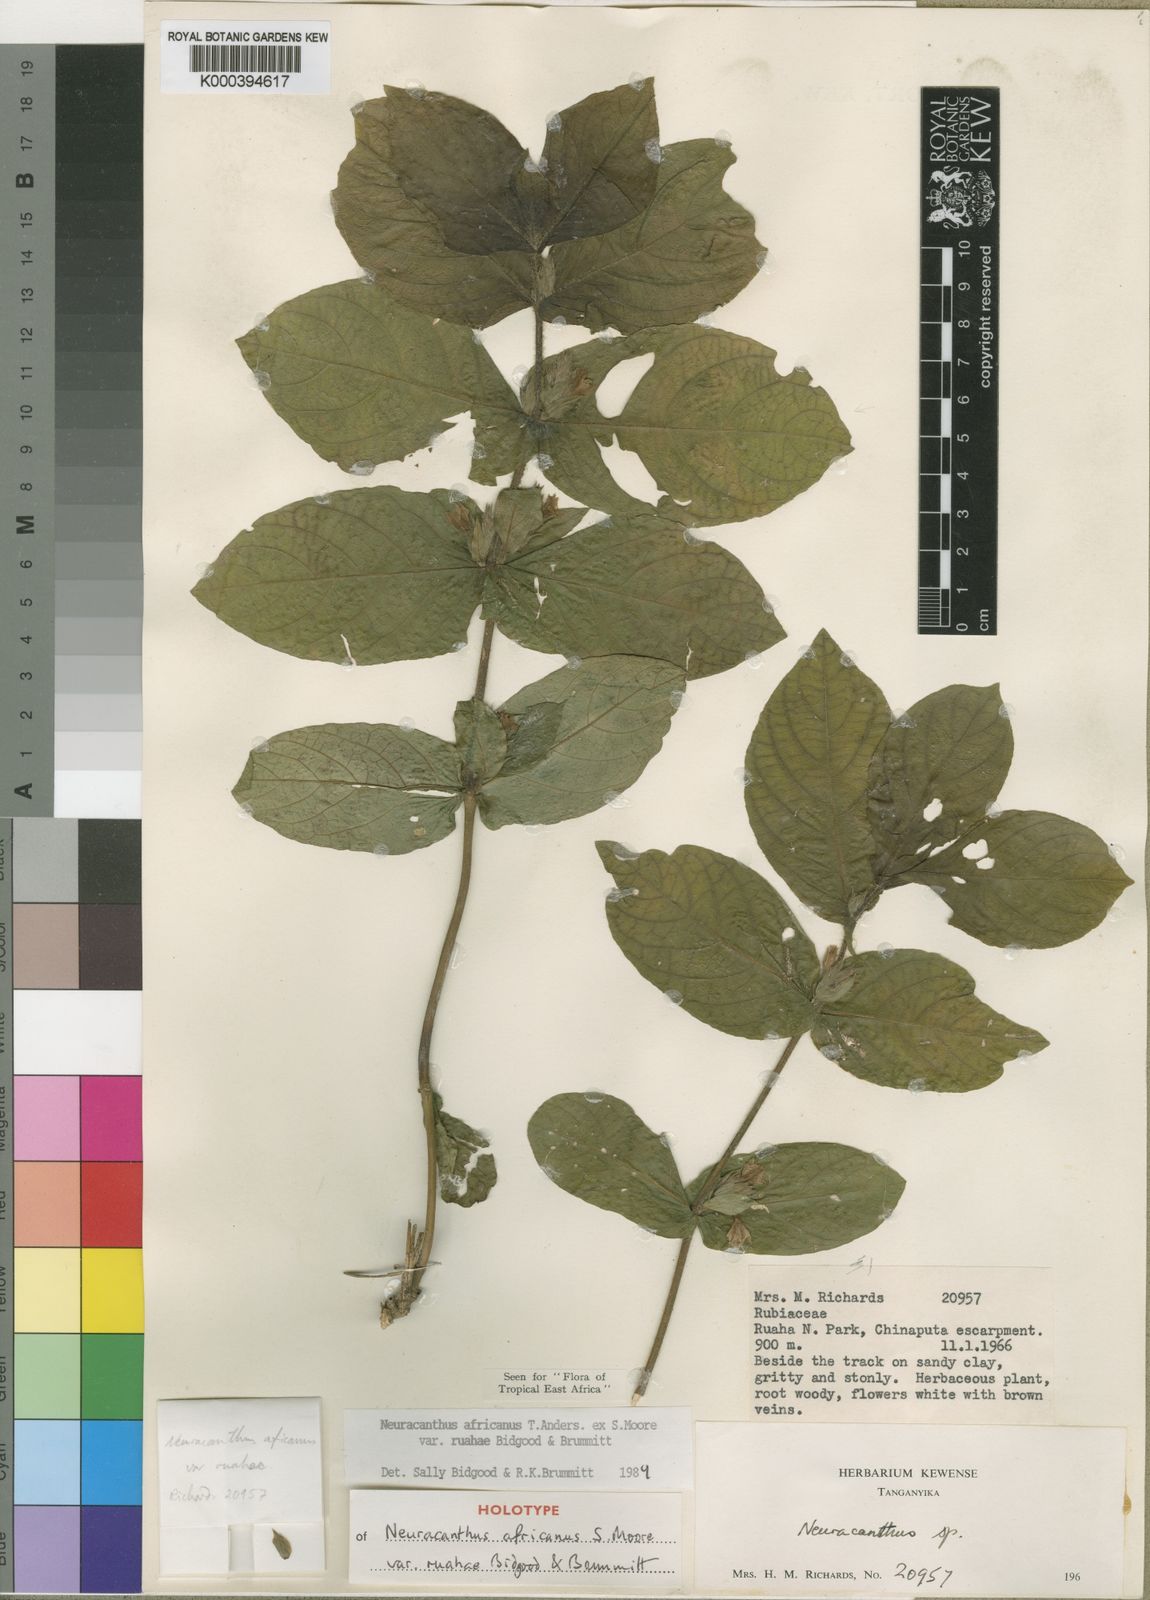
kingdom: Plantae
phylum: Tracheophyta
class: Magnoliopsida
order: Lamiales
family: Acanthaceae
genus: Neuracanthus
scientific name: Neuracanthus africanus
